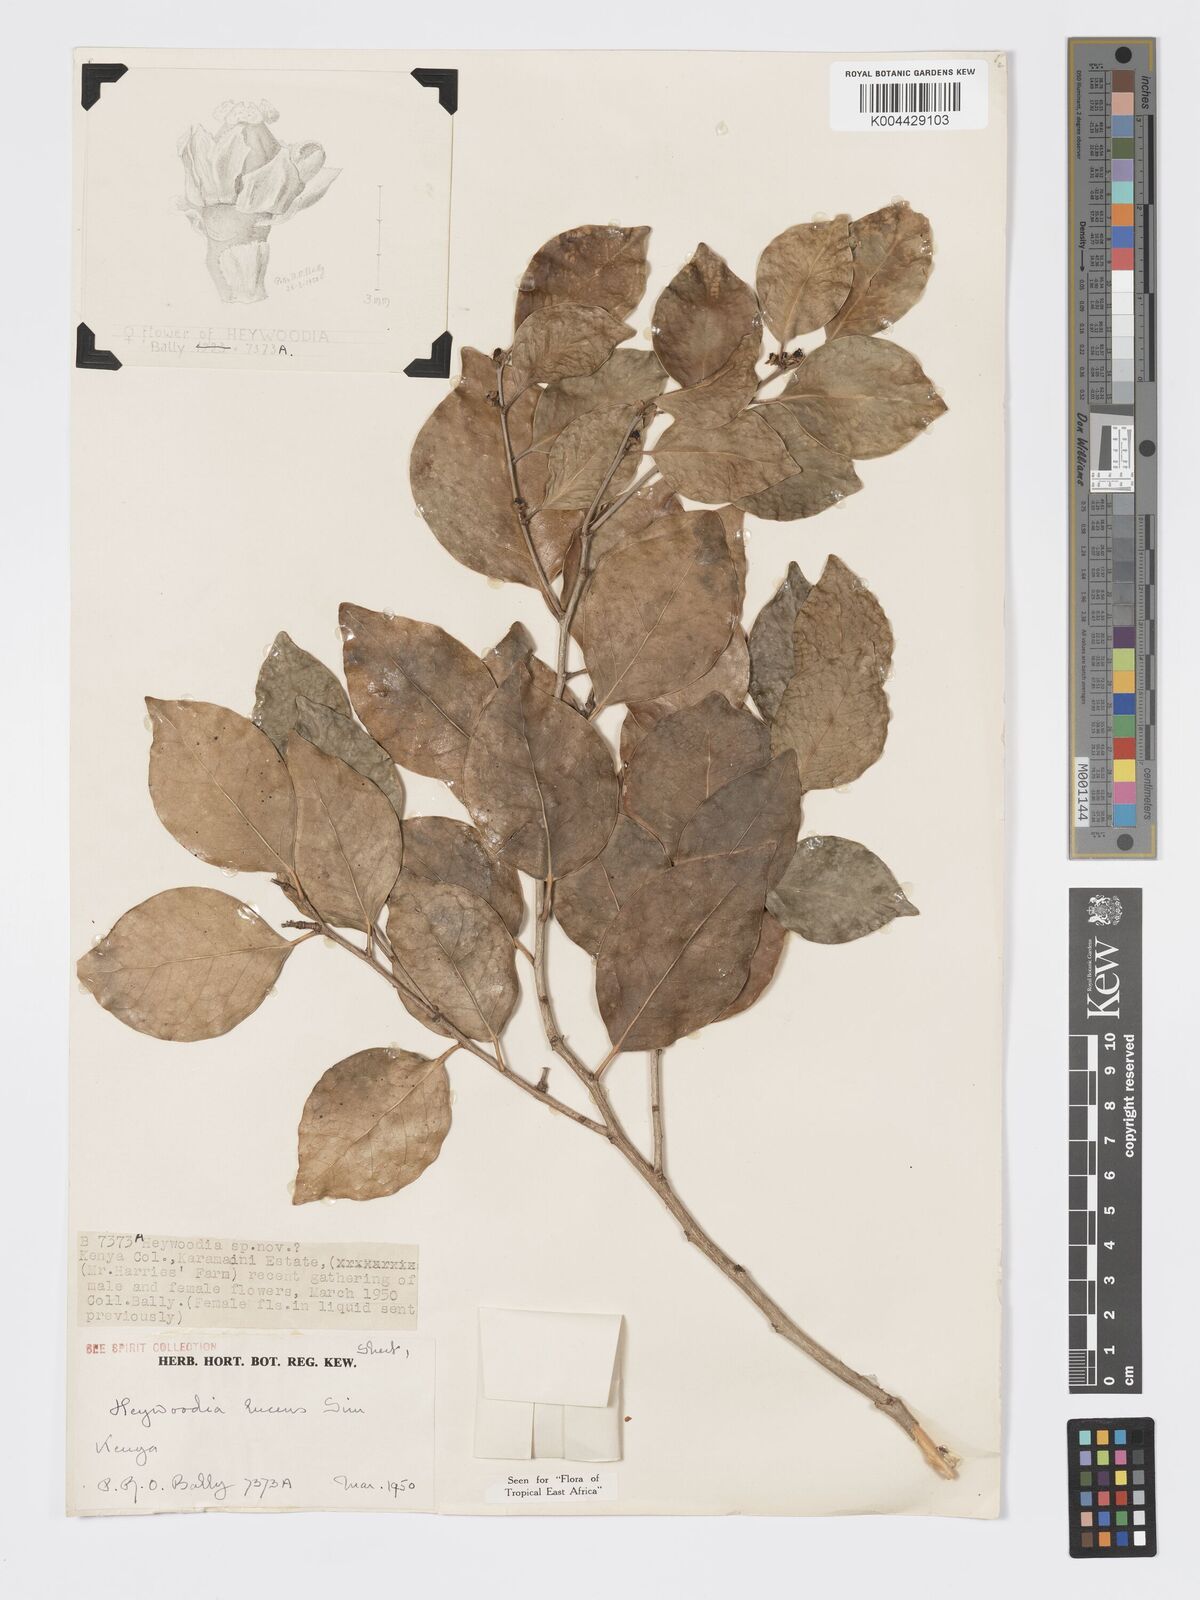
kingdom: Plantae
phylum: Tracheophyta
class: Magnoliopsida
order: Malpighiales
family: Phyllanthaceae
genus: Heywoodia
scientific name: Heywoodia lucens
